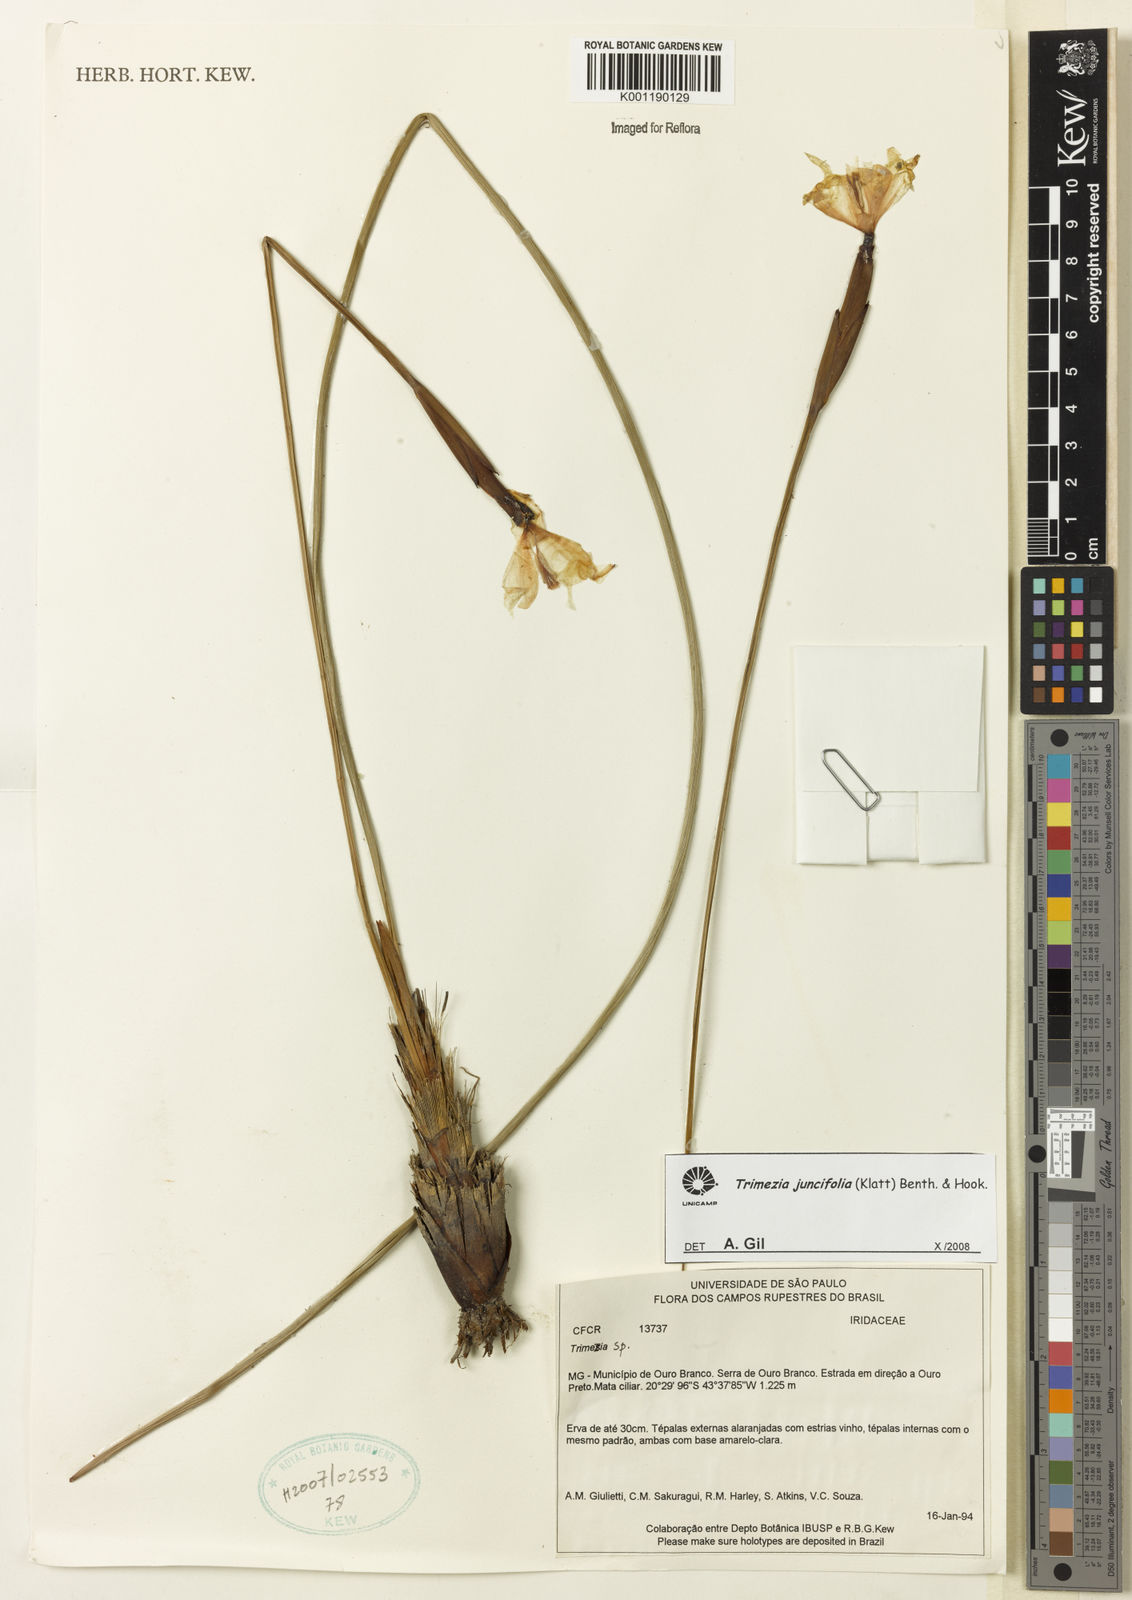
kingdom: Plantae
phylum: Tracheophyta
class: Liliopsida
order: Asparagales
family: Iridaceae
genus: Trimezia
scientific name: Trimezia juncifolia
